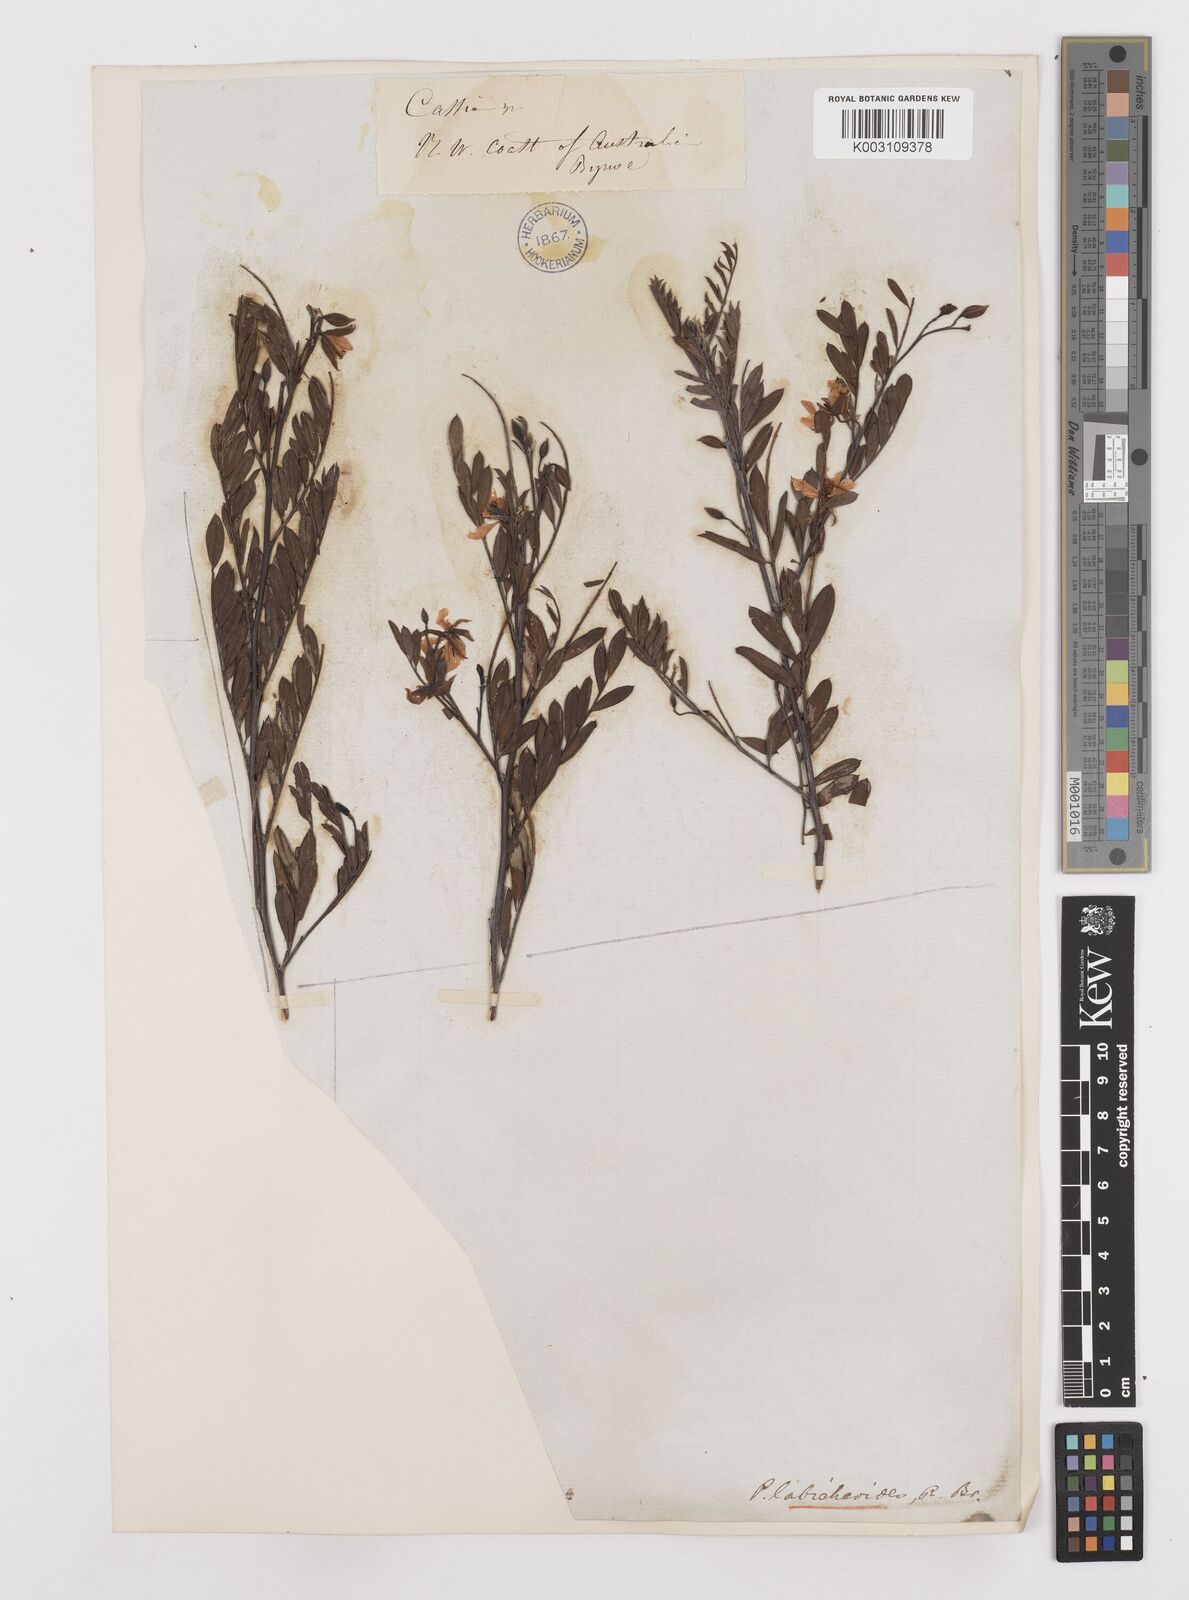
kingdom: Plantae
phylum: Tracheophyta
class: Magnoliopsida
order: Fabales
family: Fabaceae
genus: Petalostylis
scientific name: Petalostylis labicheoides
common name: Butterfly bush
